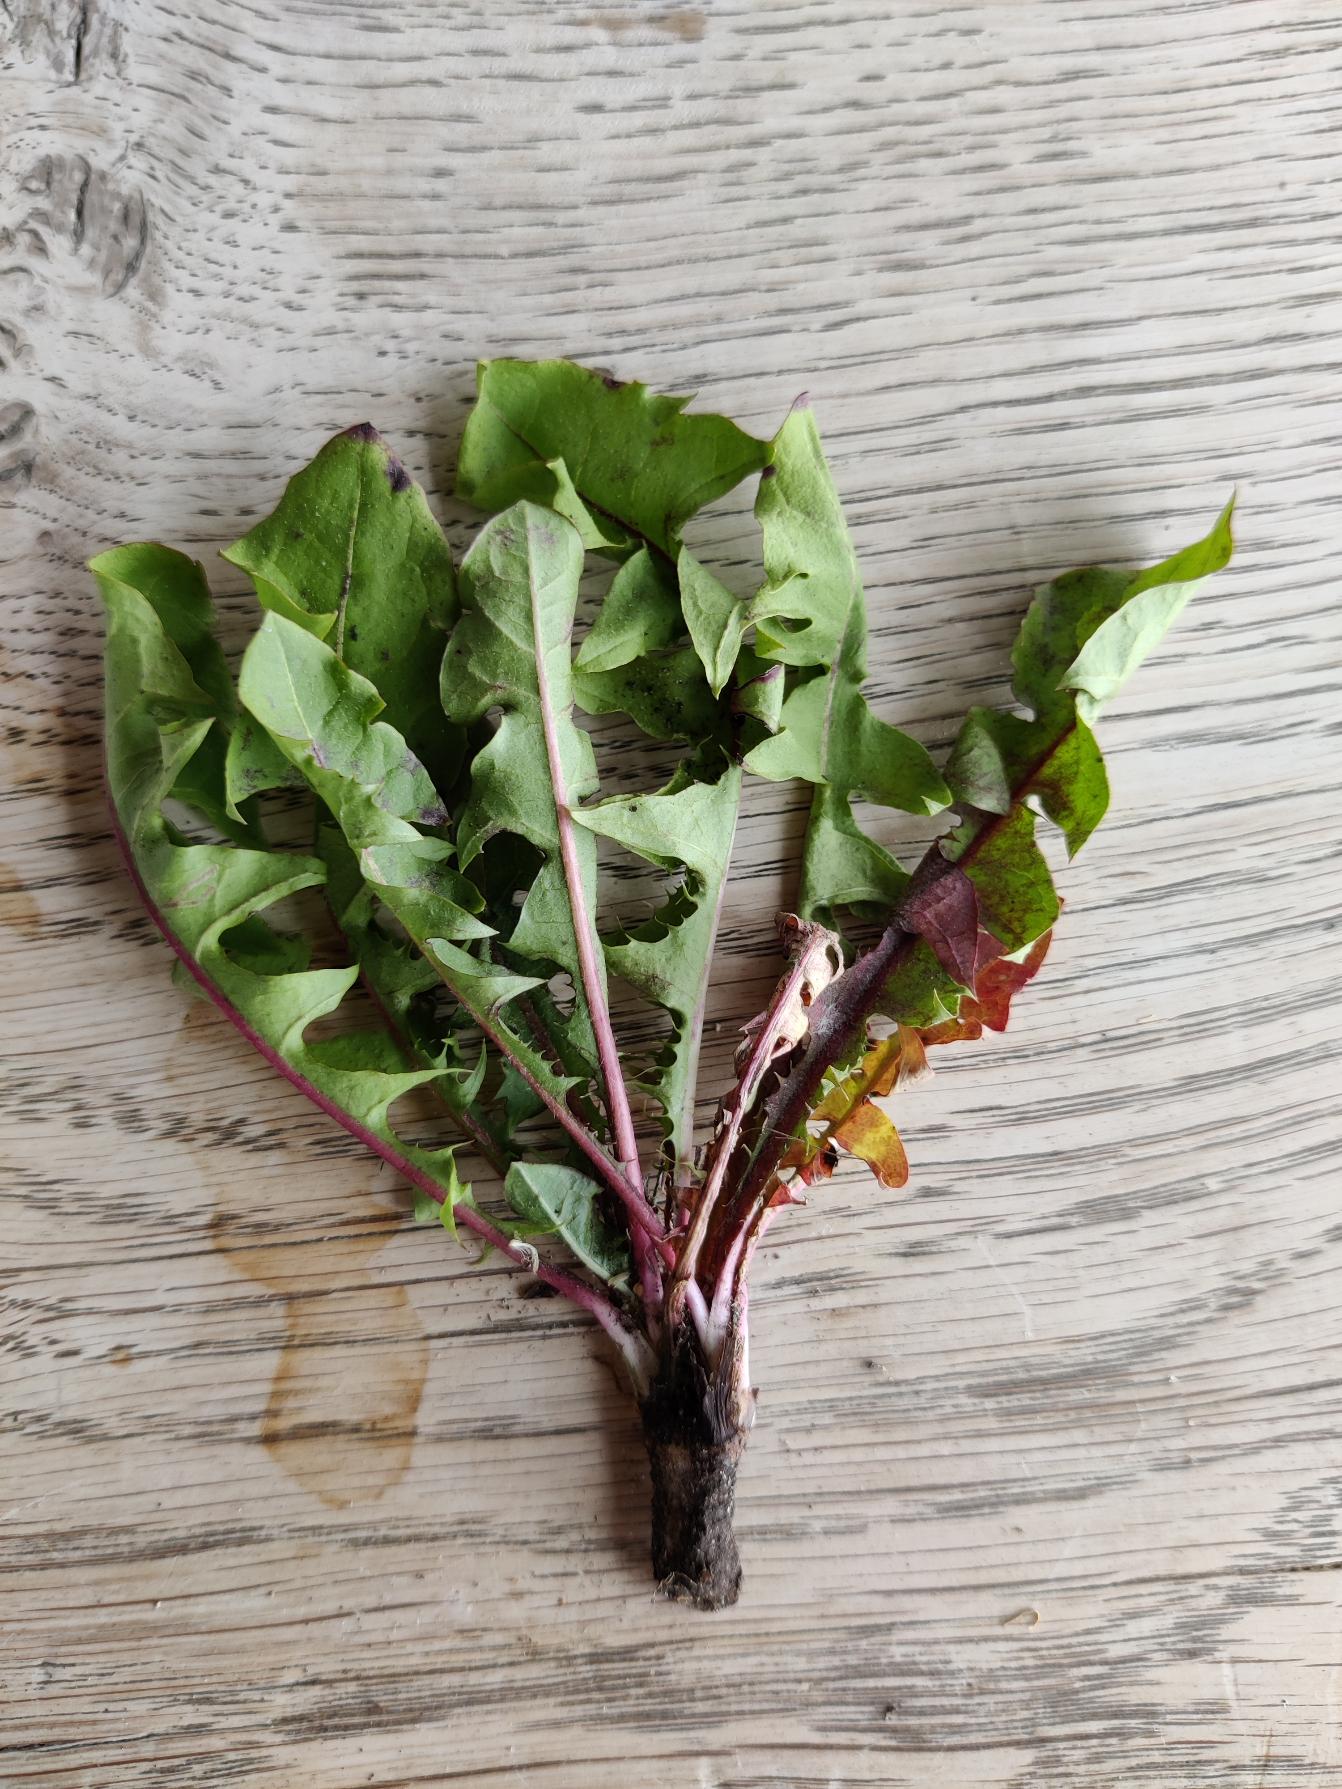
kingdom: Plantae
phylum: Tracheophyta
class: Magnoliopsida
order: Asterales
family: Asteraceae
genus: Taraxacum
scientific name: Taraxacum
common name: Mælkebøtteslægten
